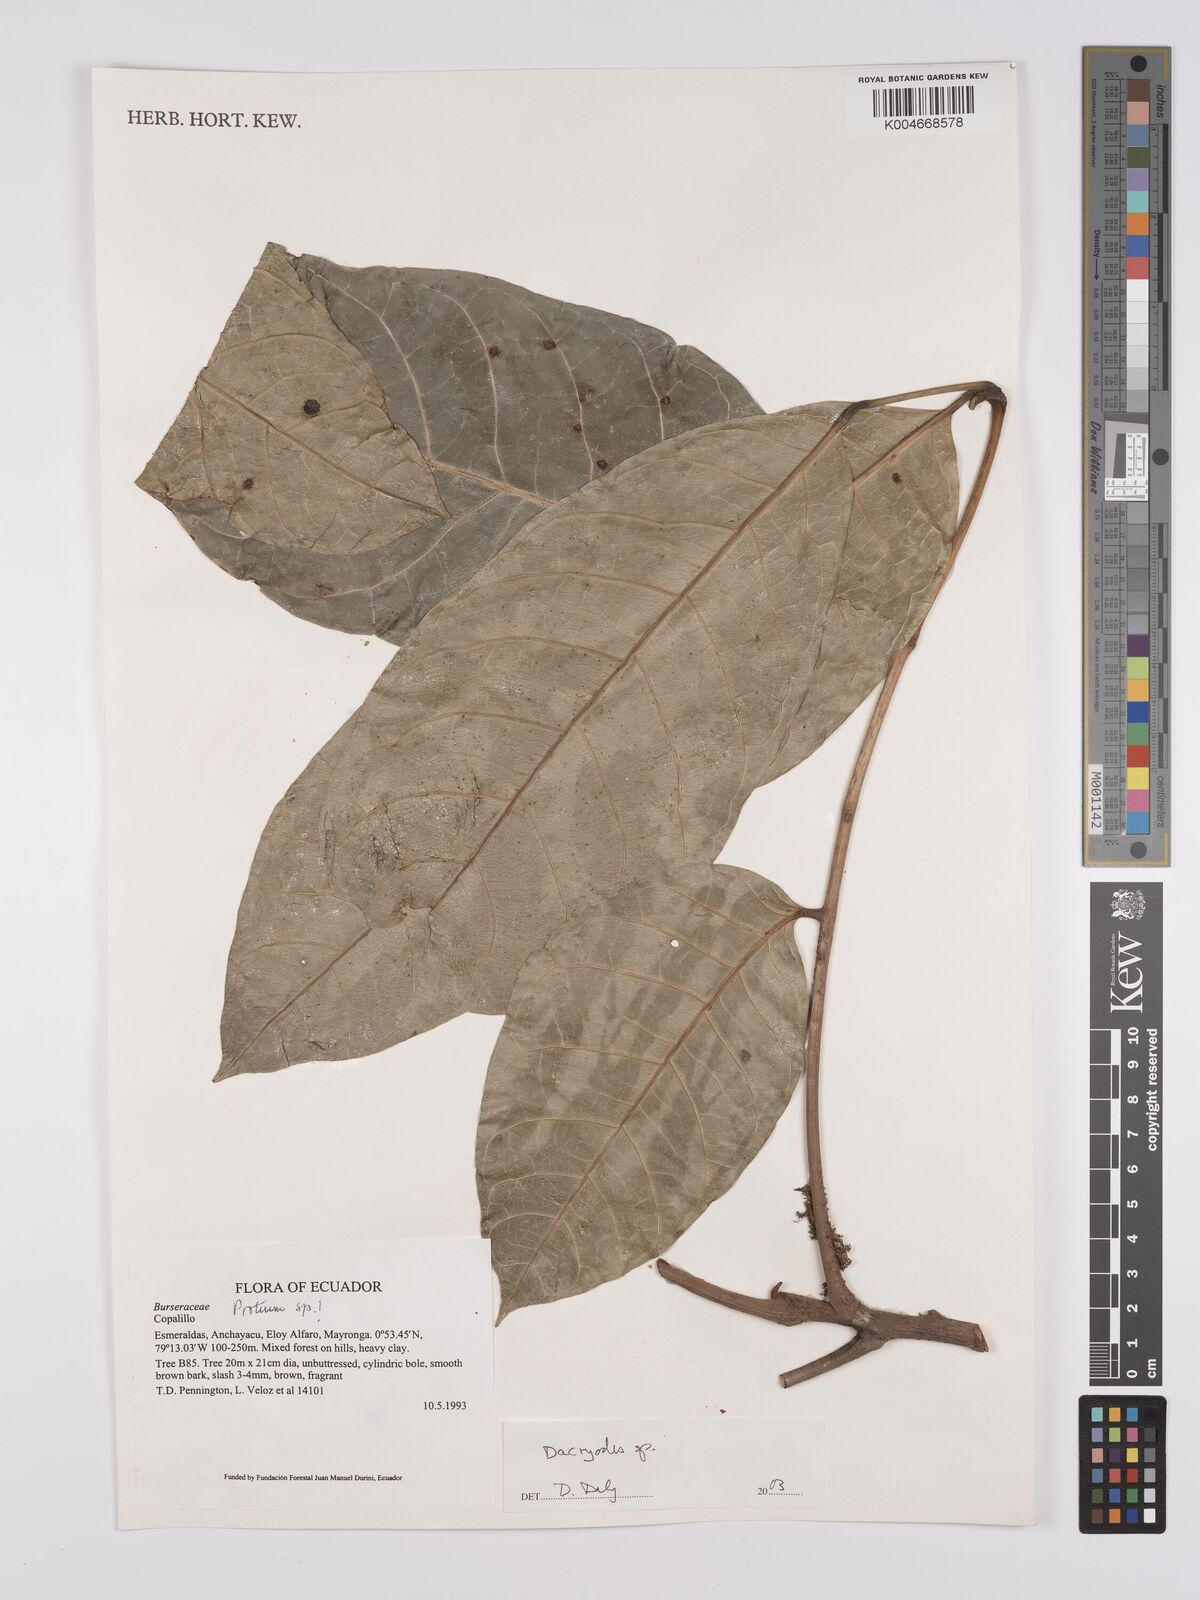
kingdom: Plantae
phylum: Tracheophyta
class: Magnoliopsida
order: Sapindales
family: Burseraceae
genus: Dacryodes
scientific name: Dacryodes
